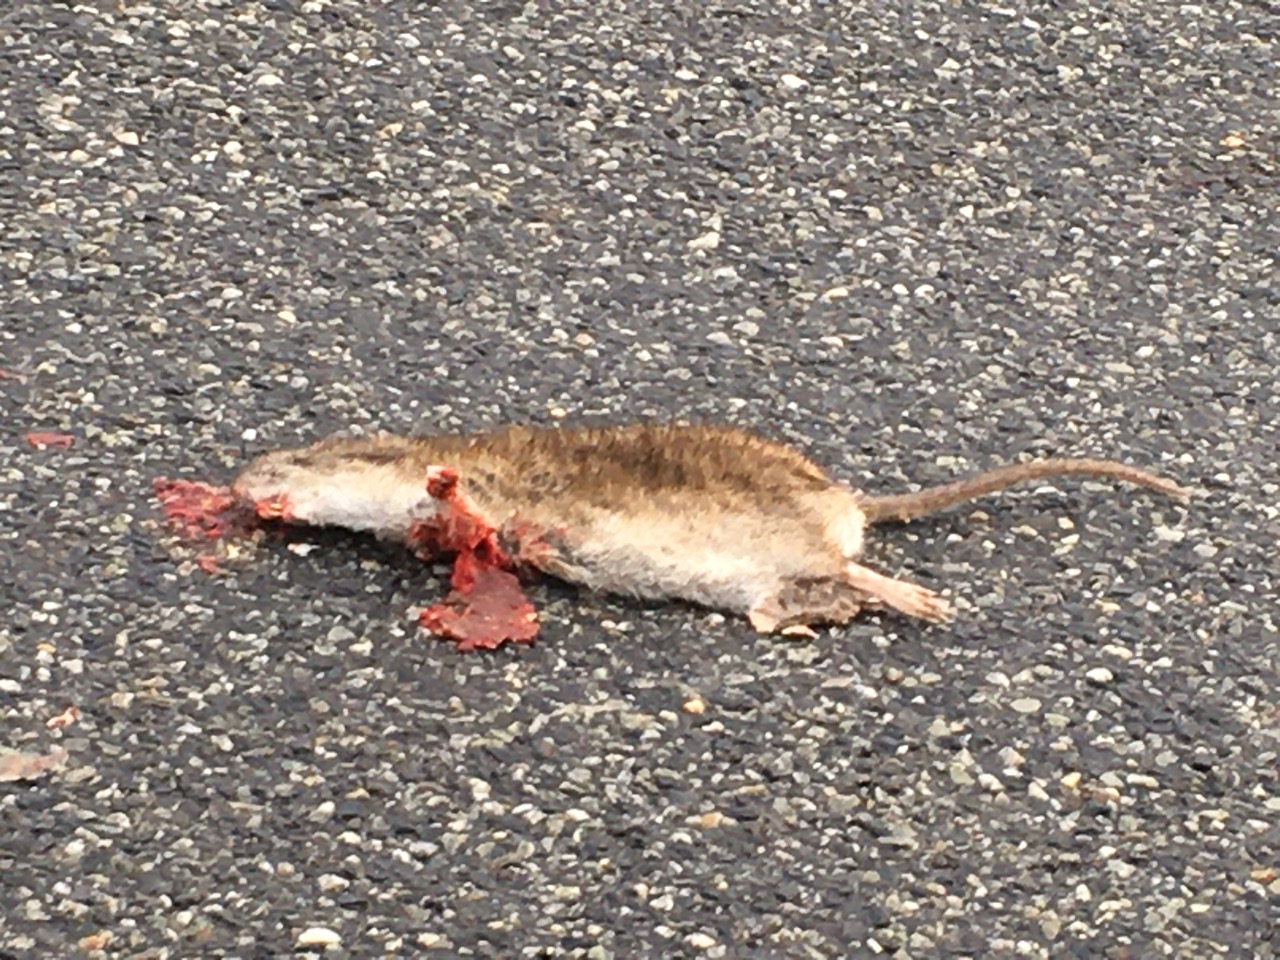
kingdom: Animalia
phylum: Chordata
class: Mammalia
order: Rodentia
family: Muridae
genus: Rattus
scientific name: Rattus
